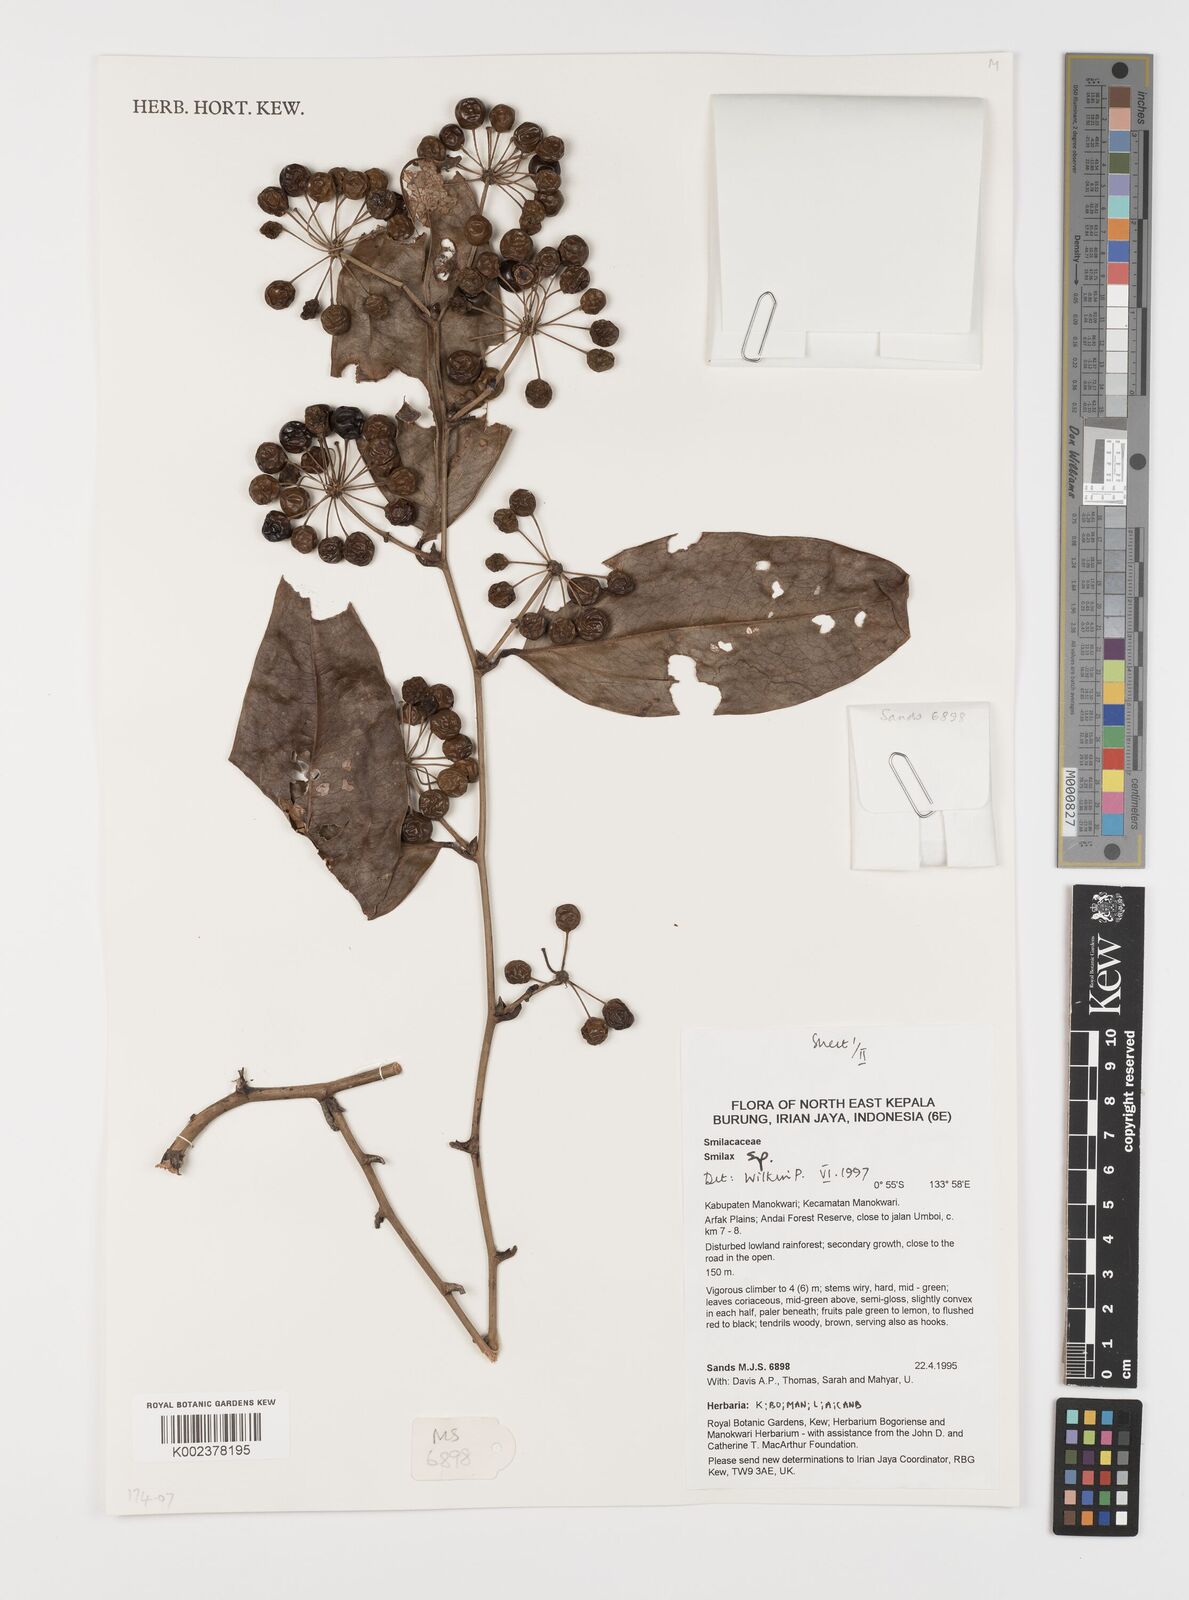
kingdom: Plantae
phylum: Tracheophyta
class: Liliopsida
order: Liliales
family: Smilacaceae
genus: Smilax
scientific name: Smilax
